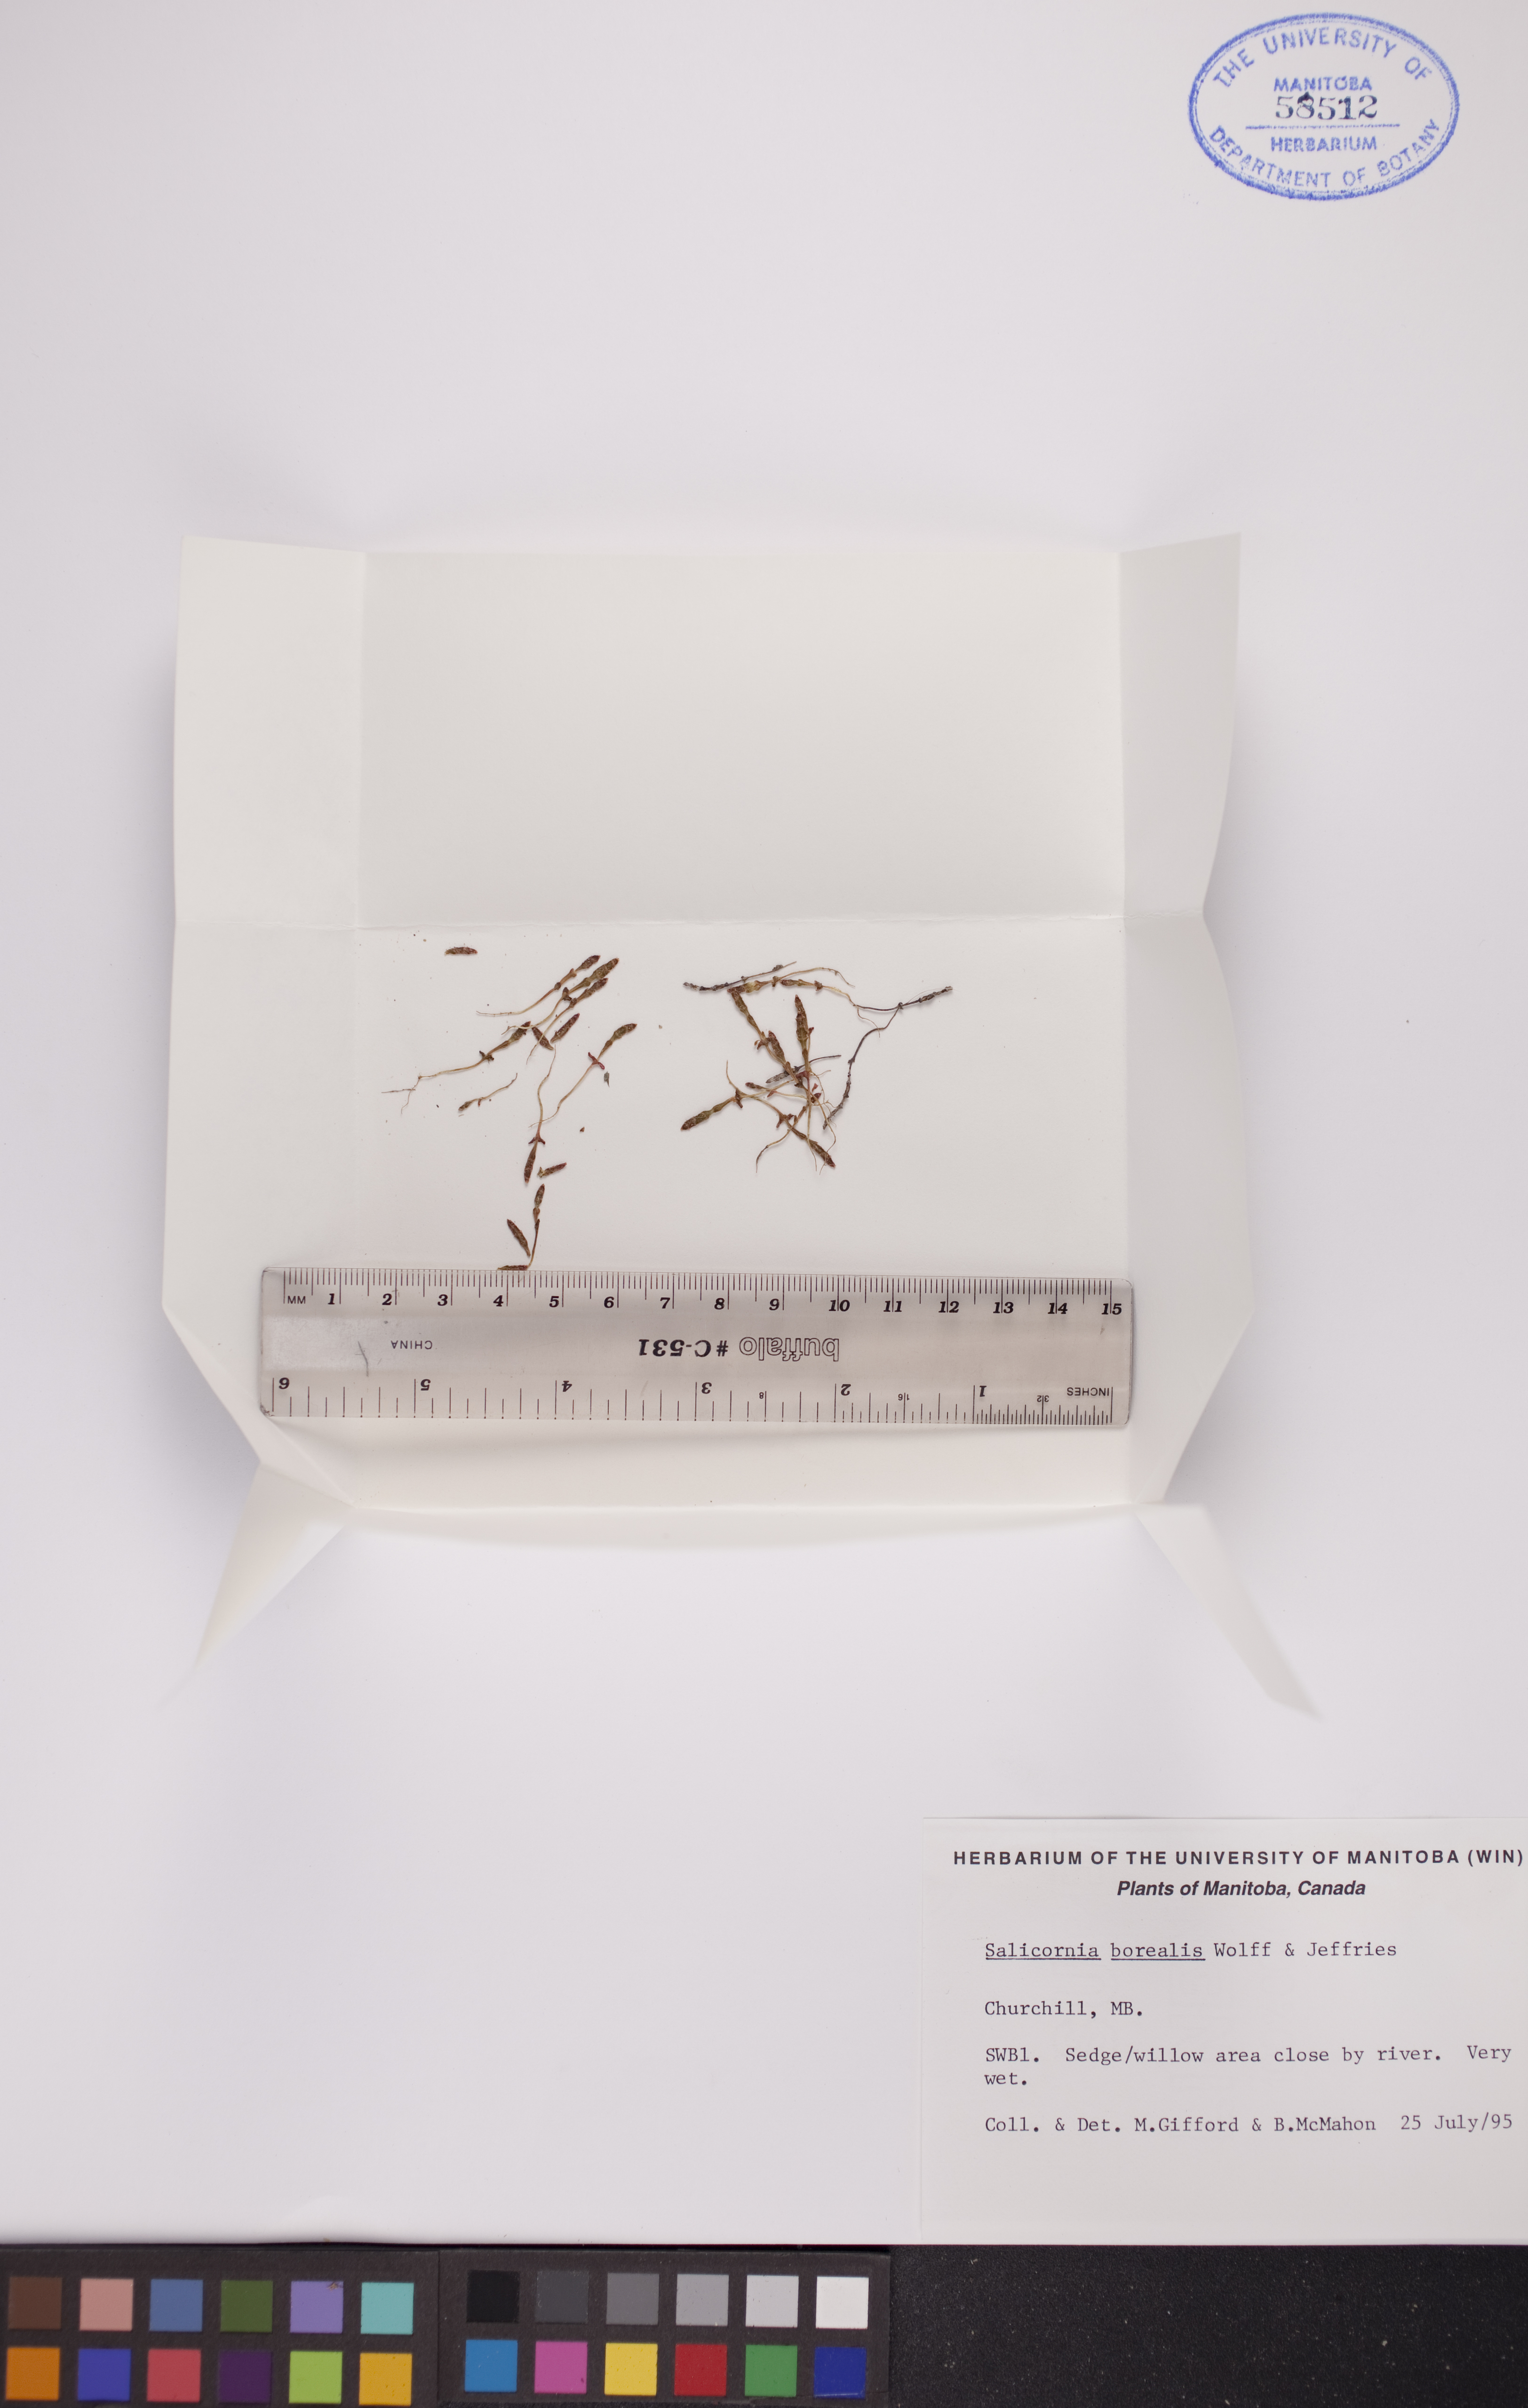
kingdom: Plantae
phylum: Tracheophyta
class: Magnoliopsida
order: Caryophyllales
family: Amaranthaceae
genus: Salicornia
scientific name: Salicornia rubra
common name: Red glasswort
